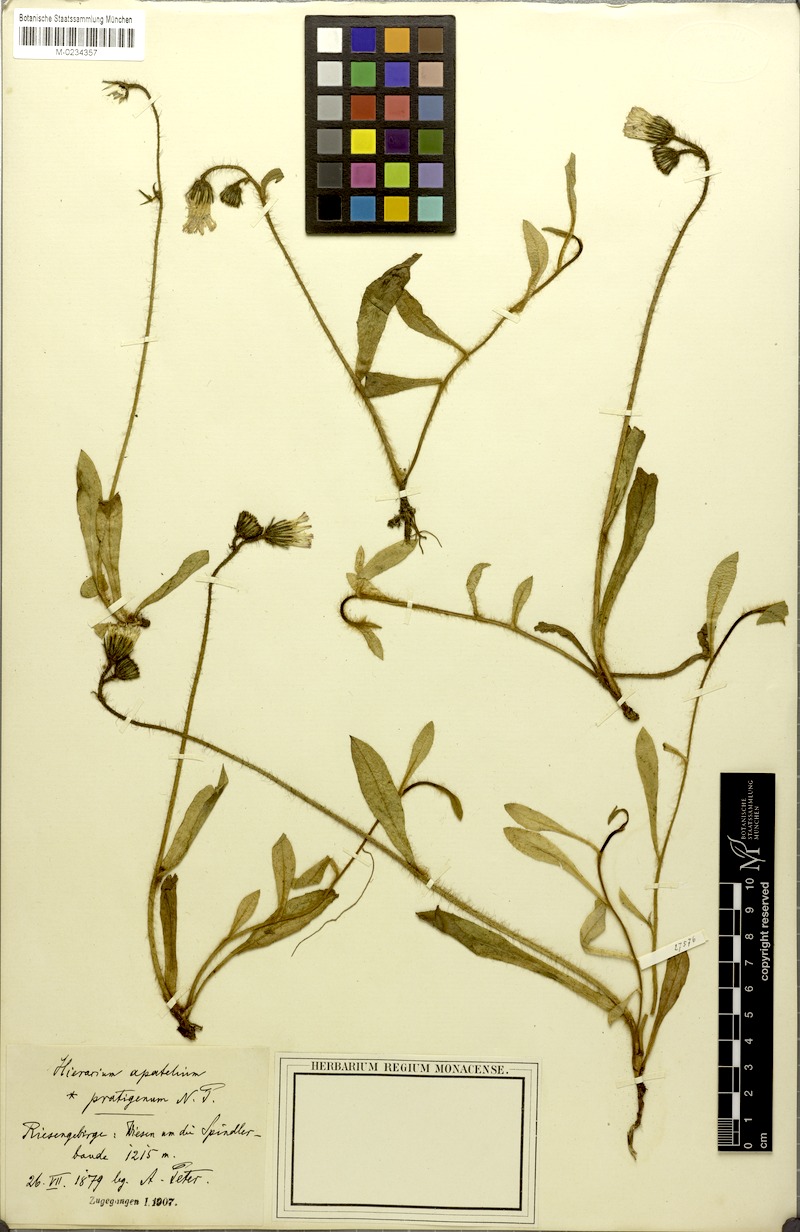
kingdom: Plantae
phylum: Tracheophyta
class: Magnoliopsida
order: Asterales
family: Asteraceae
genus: Pilosella
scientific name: Pilosella piloselliflora
